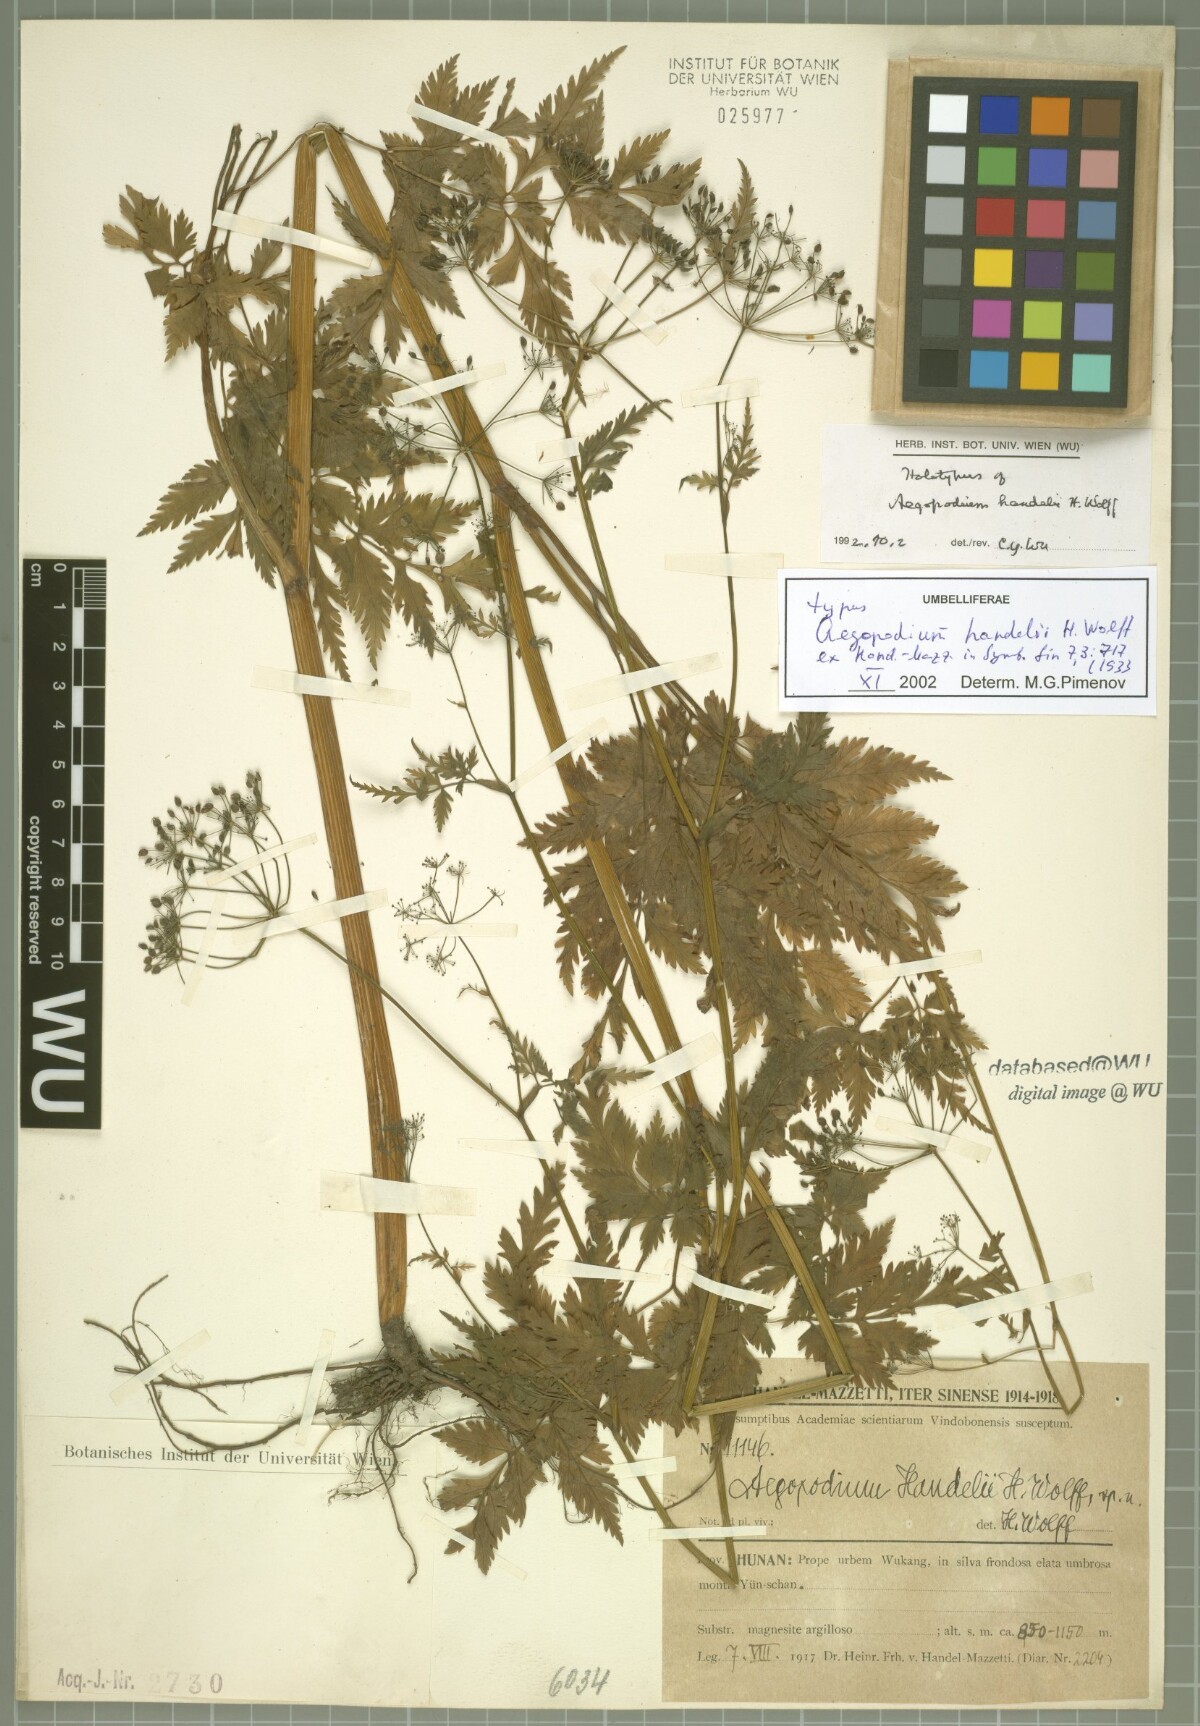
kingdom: Plantae
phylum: Tracheophyta
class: Magnoliopsida
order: Apiales
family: Apiaceae
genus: Aegopodium
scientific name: Aegopodium henryi
